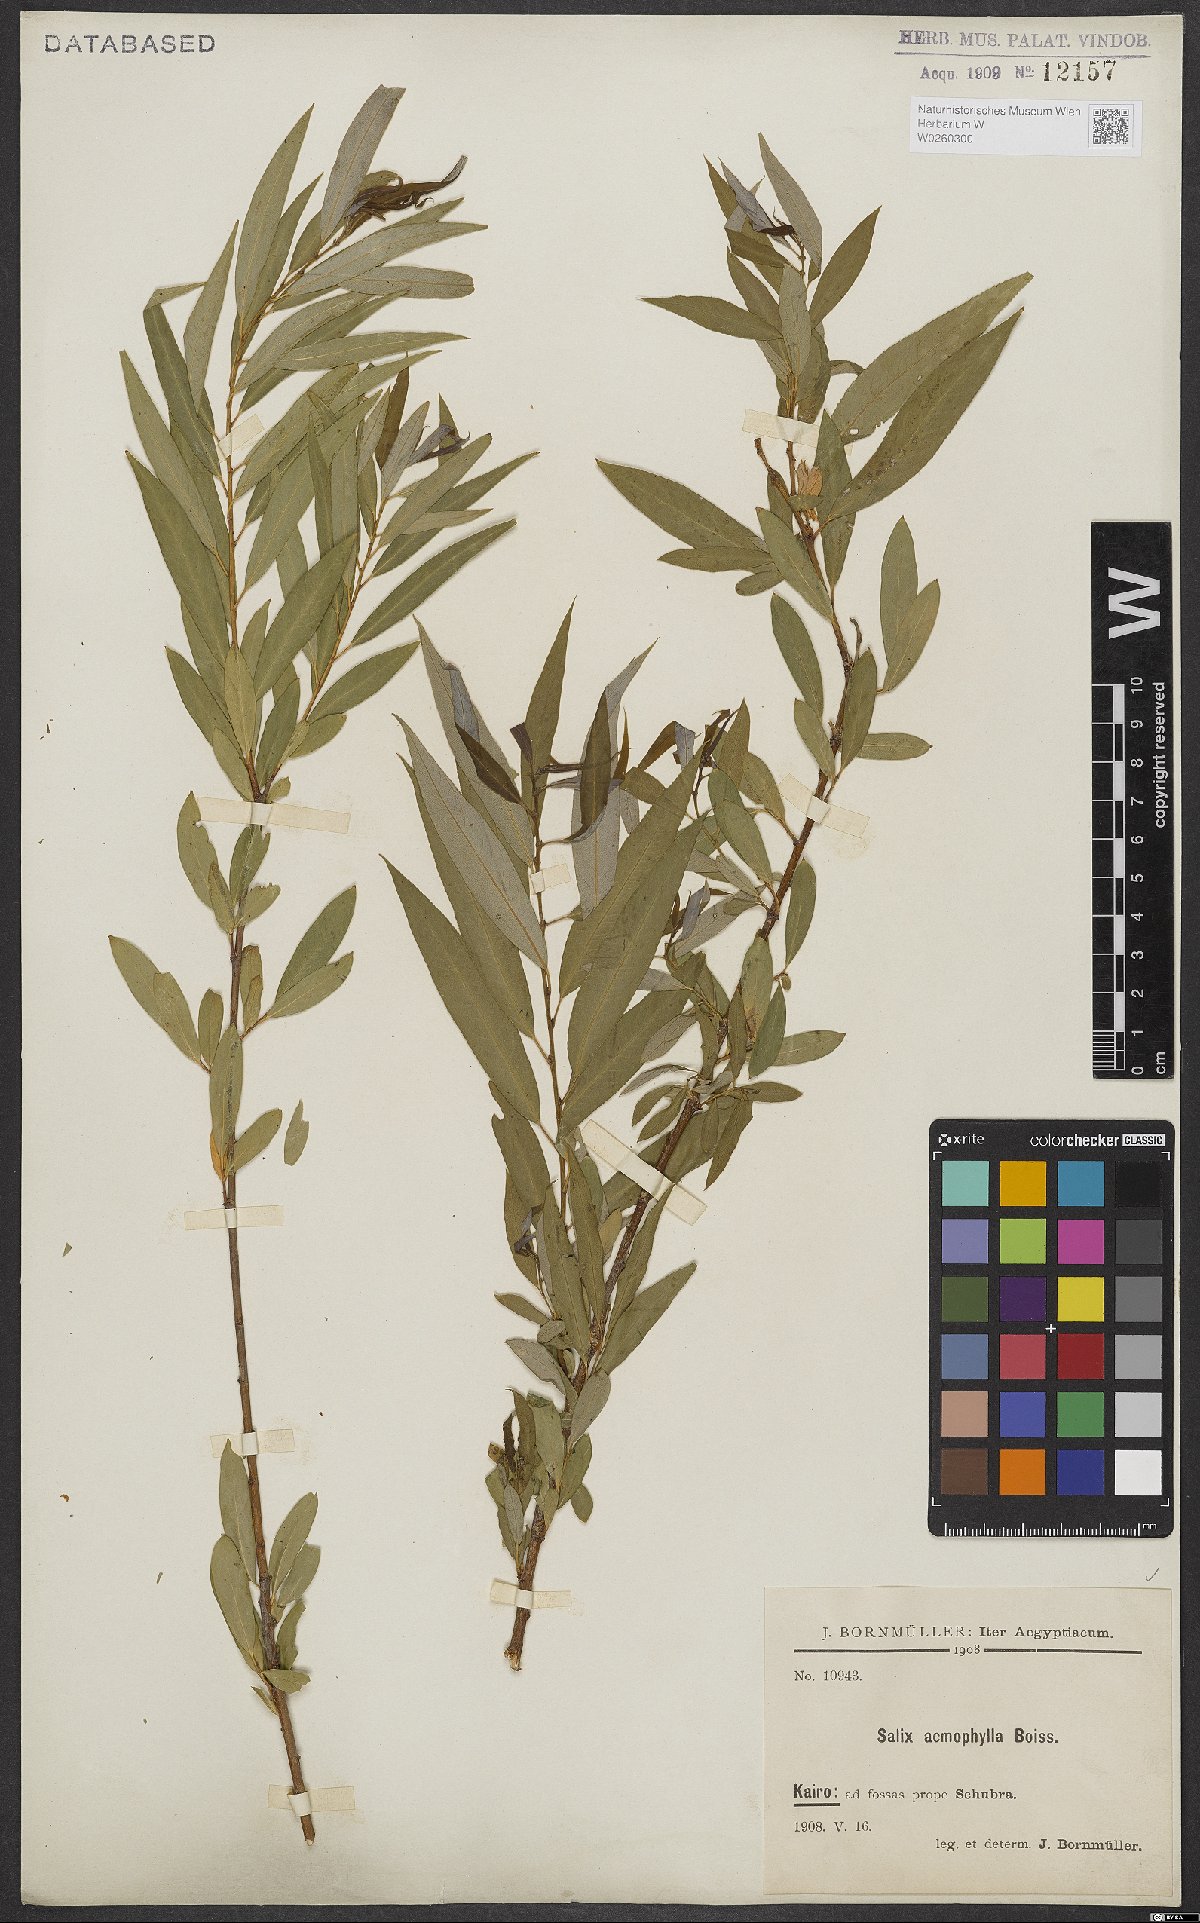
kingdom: Plantae
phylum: Tracheophyta
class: Magnoliopsida
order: Malpighiales
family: Salicaceae
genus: Salix
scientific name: Salix acmophylla
